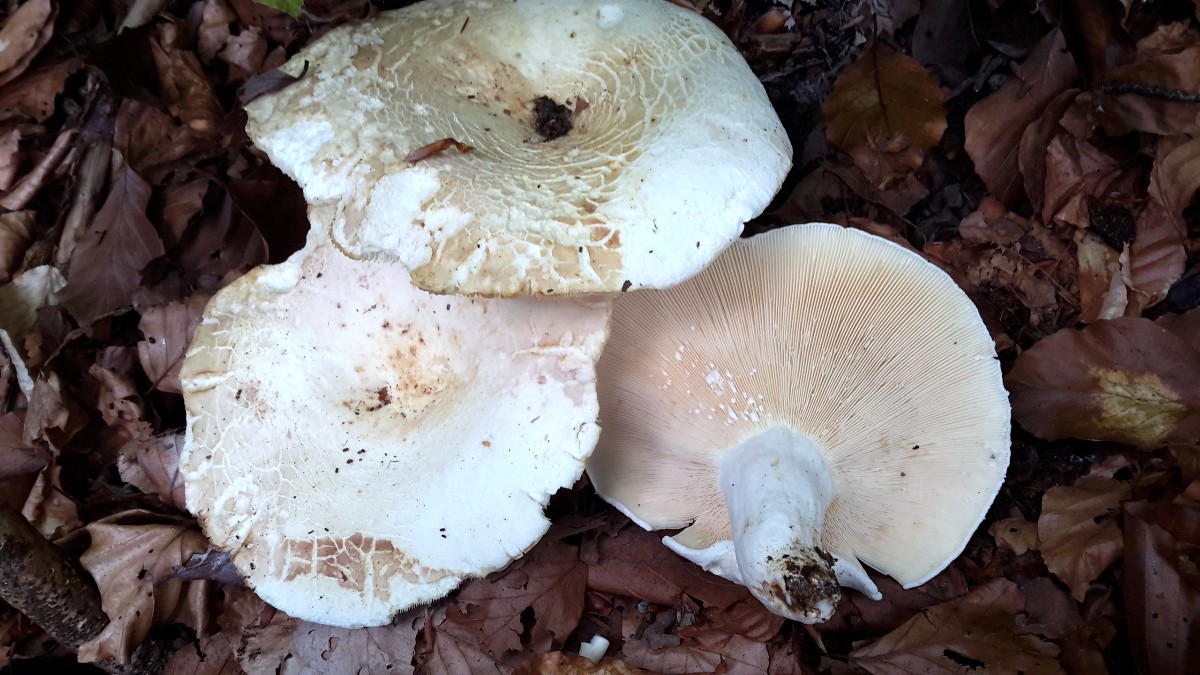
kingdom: Fungi
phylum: Basidiomycota
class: Agaricomycetes
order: Russulales
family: Russulaceae
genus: Lactifluus
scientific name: Lactifluus piperatus
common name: peber-mælkehat
